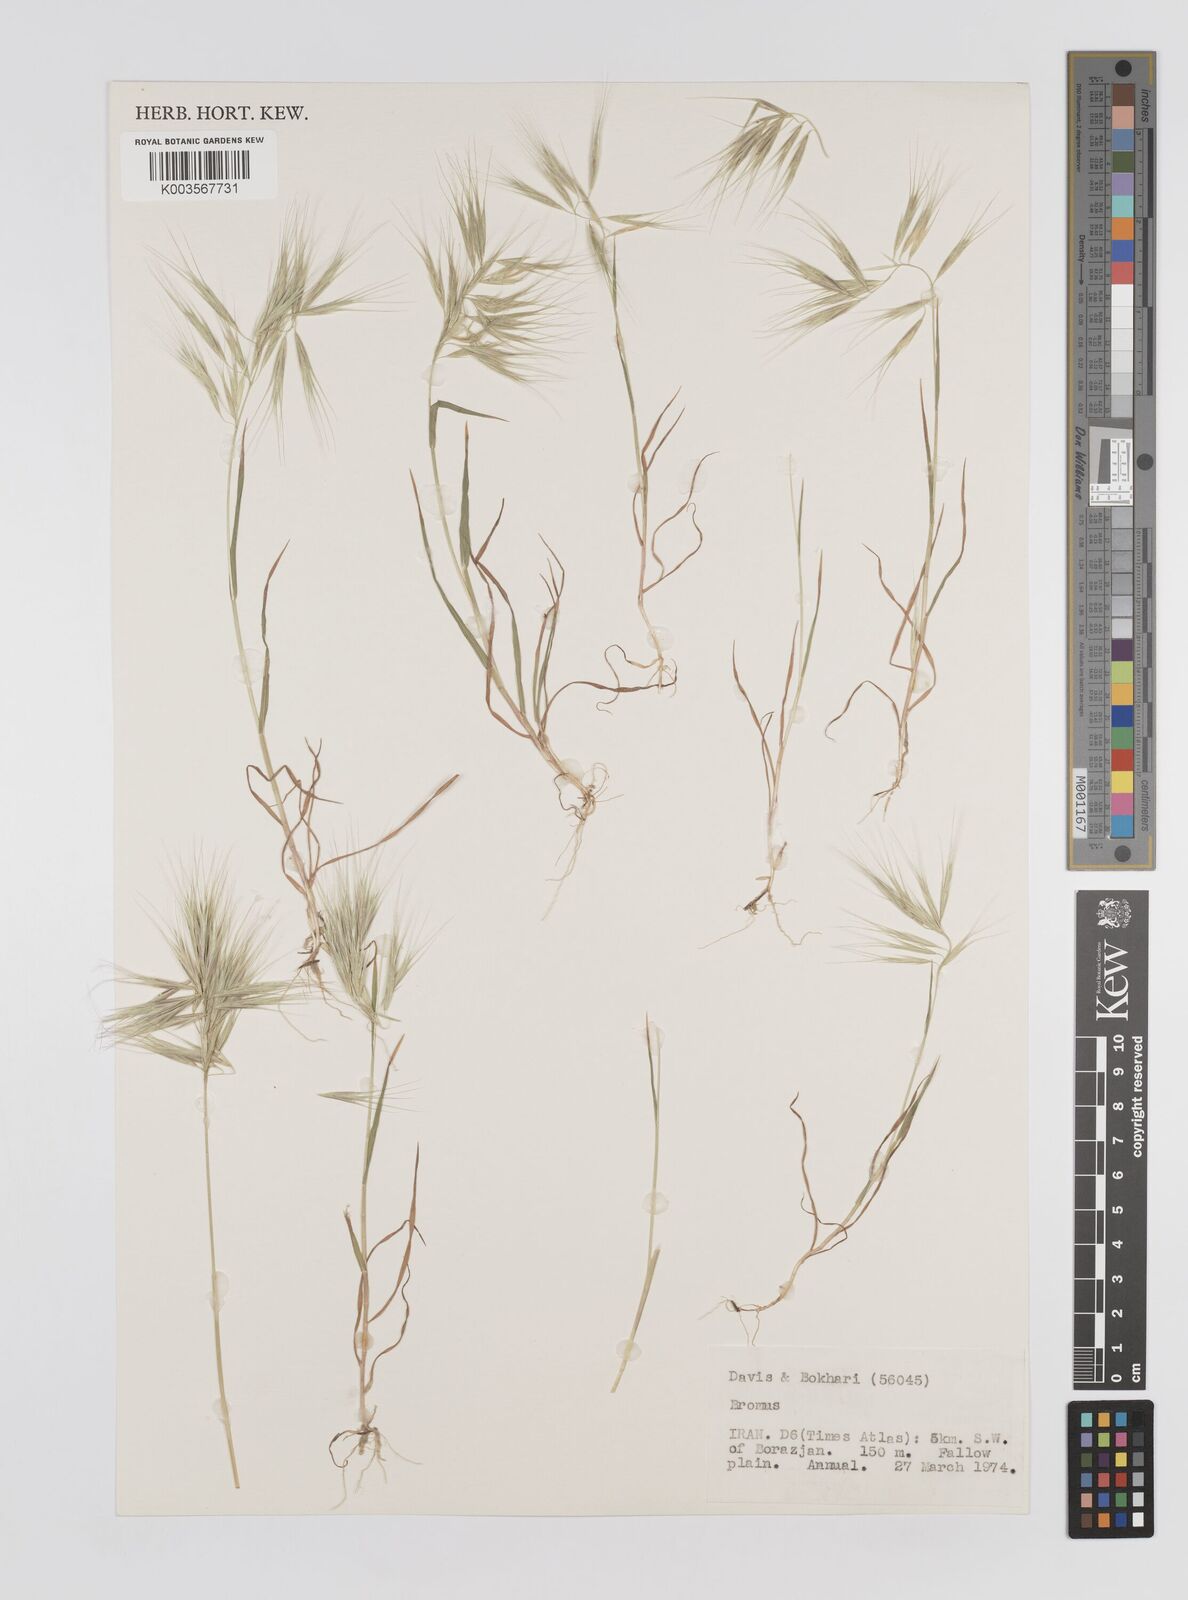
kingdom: Plantae
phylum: Tracheophyta
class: Liliopsida
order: Poales
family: Poaceae
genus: Bromus
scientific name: Bromus
